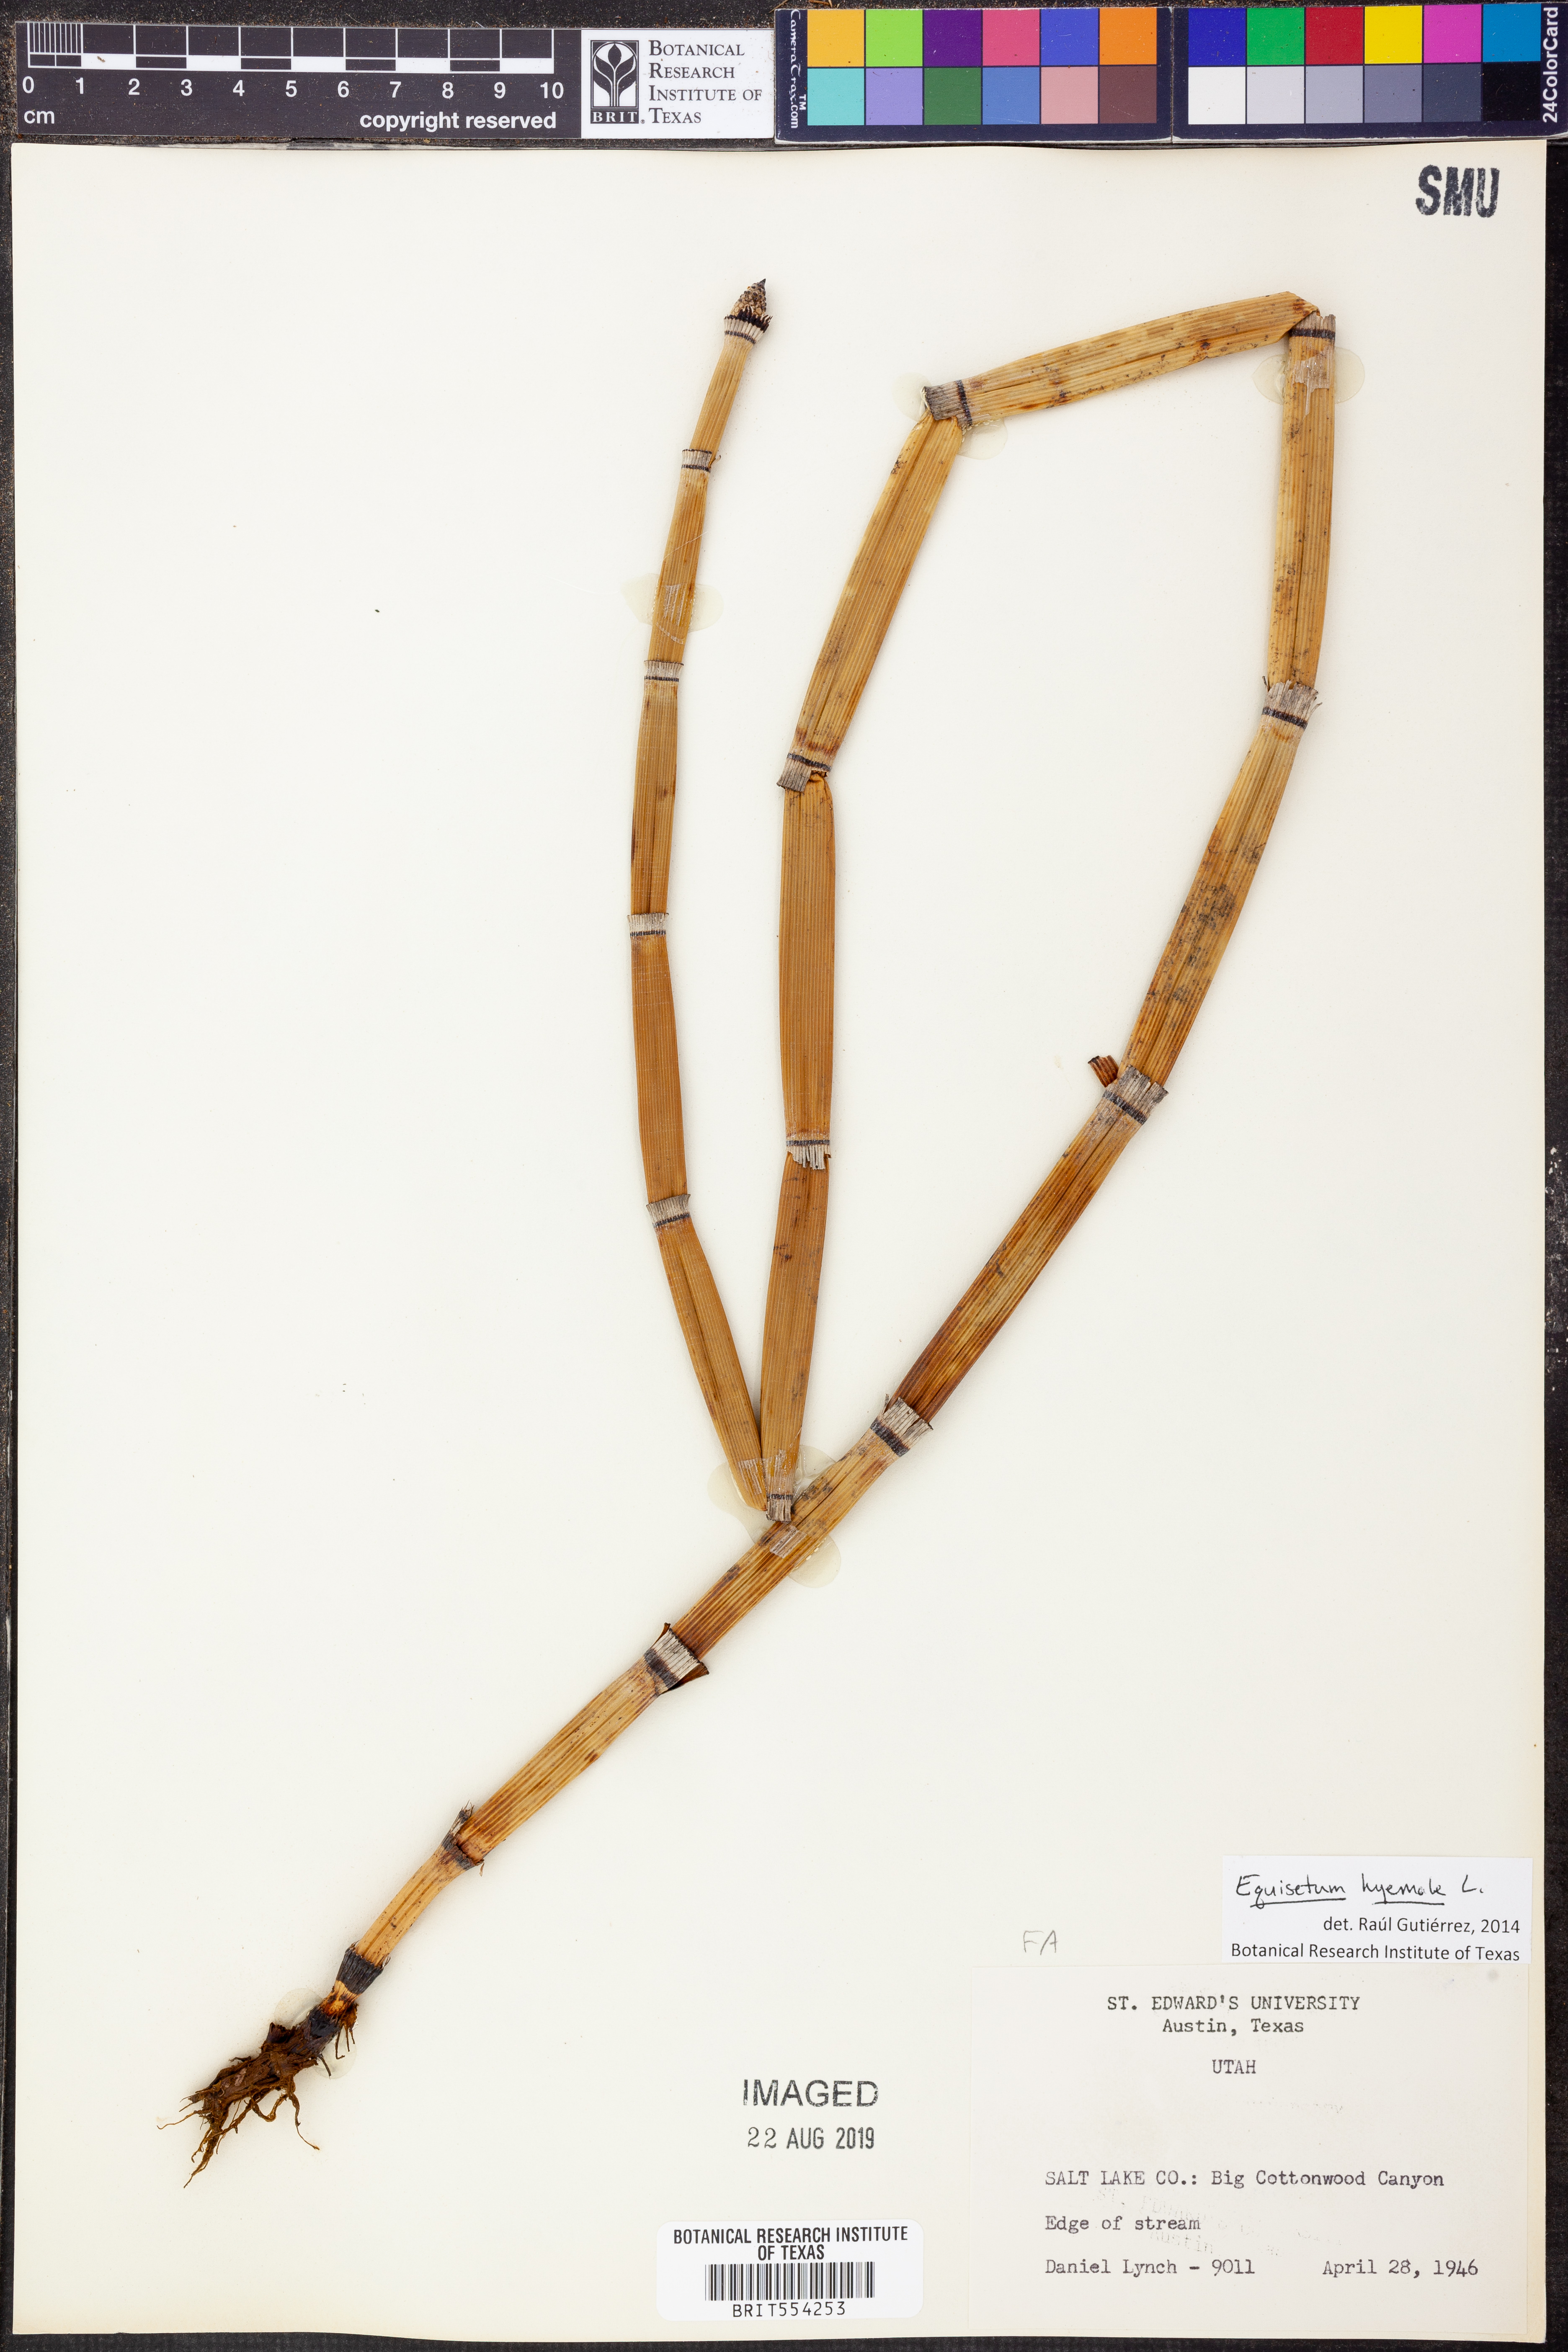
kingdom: Plantae
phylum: Tracheophyta
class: Polypodiopsida
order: Equisetales
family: Equisetaceae
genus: Equisetum
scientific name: Equisetum hyemale
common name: Rough horsetail
